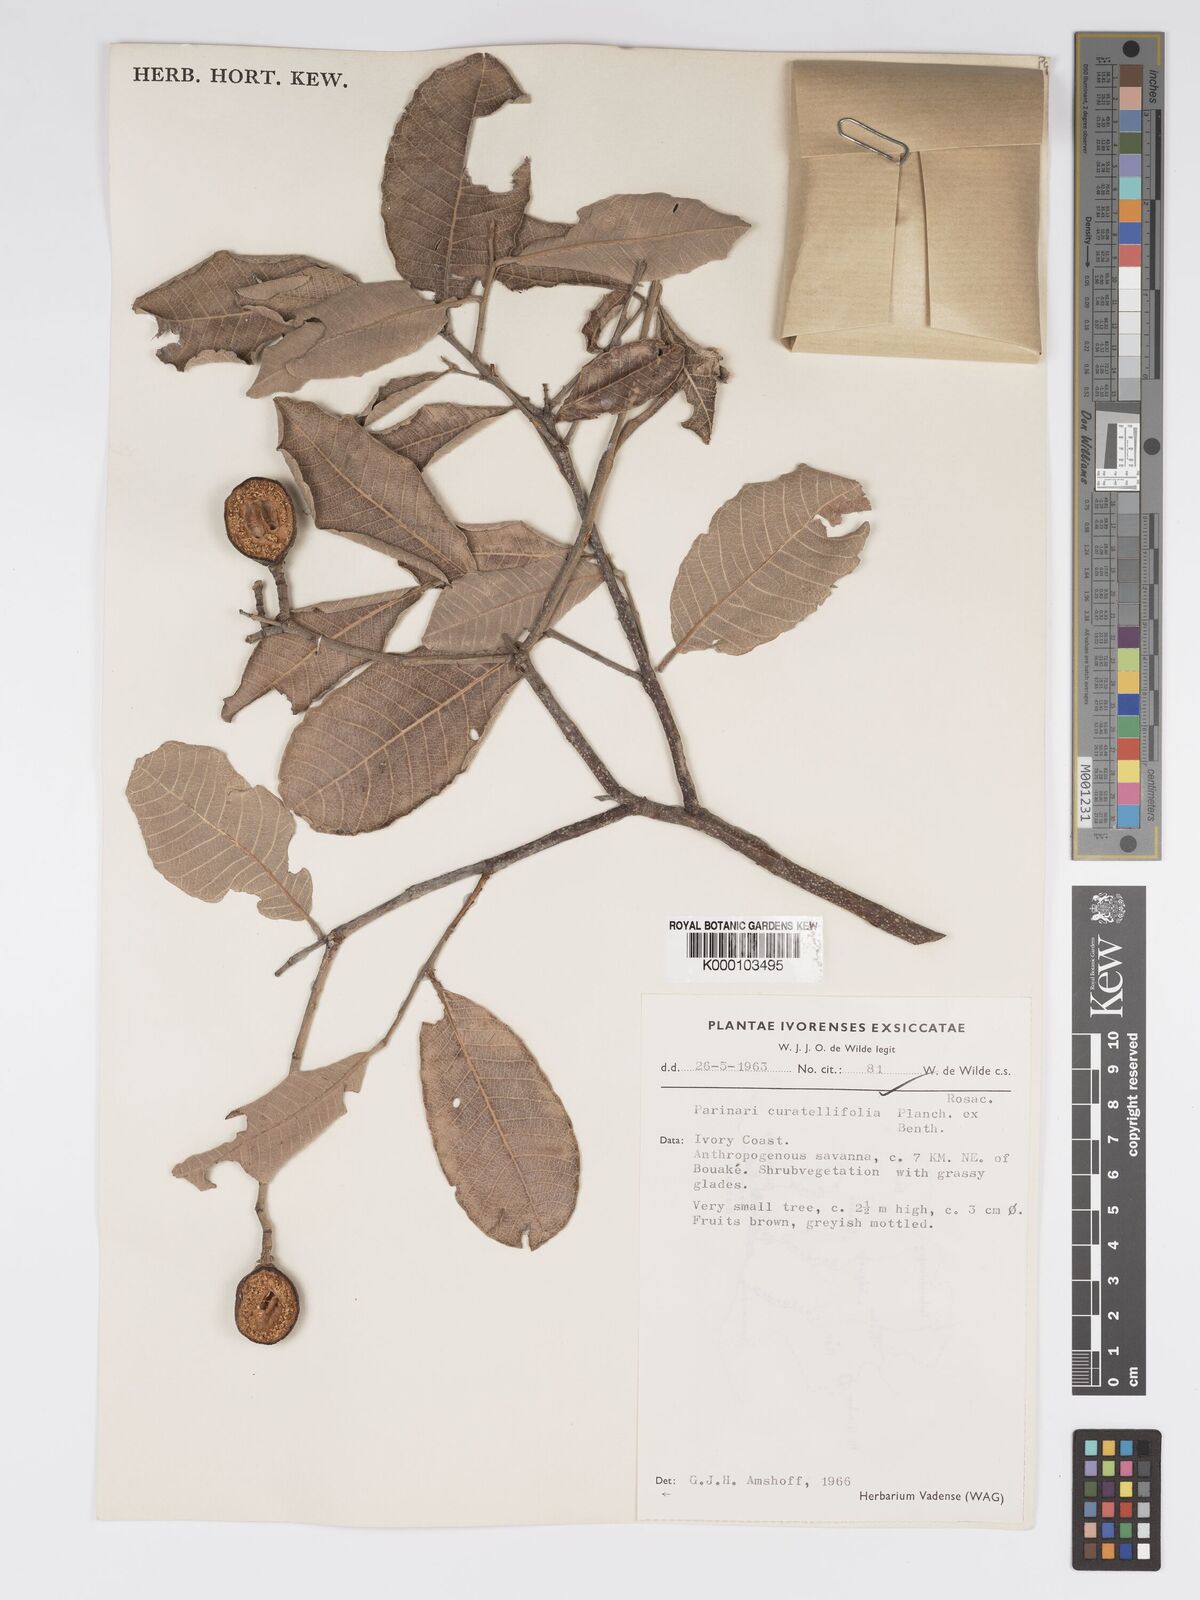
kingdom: Plantae
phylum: Tracheophyta
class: Magnoliopsida
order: Malpighiales
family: Chrysobalanaceae
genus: Parinari
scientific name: Parinari curatellifolia
